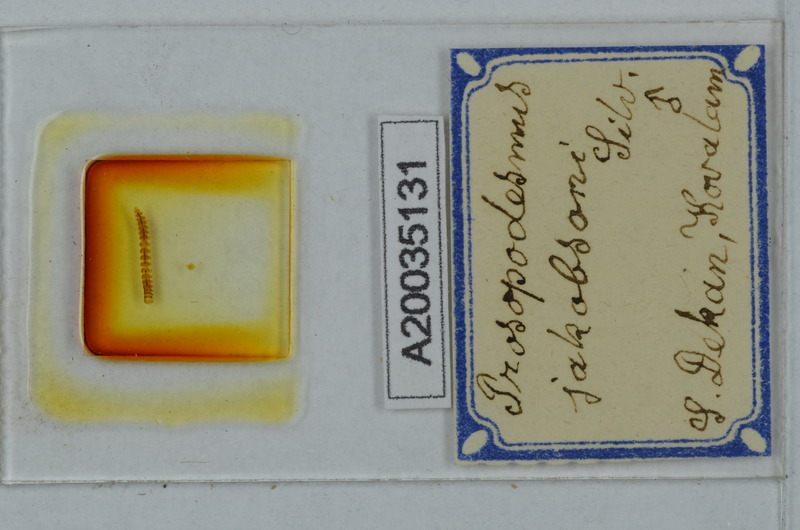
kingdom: Animalia
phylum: Arthropoda
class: Diplopoda
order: Polydesmida
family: Haplodesmidae
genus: Prosopodesmus
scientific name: Prosopodesmus jacobsoni
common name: Millipede
